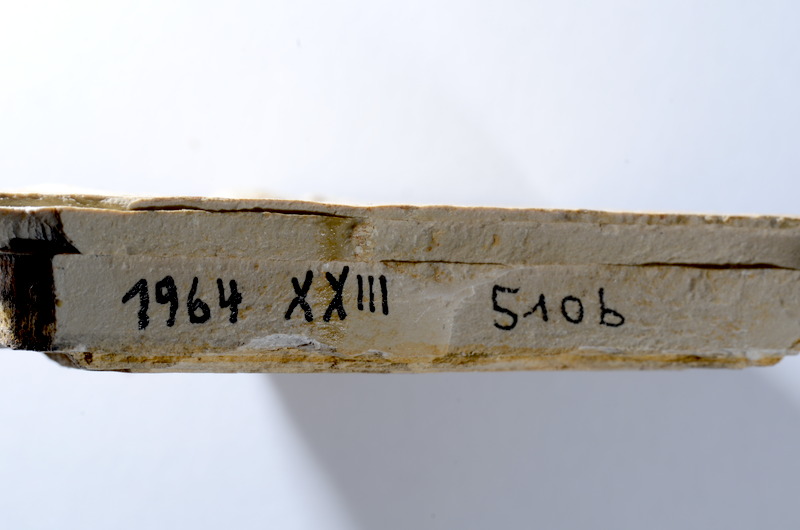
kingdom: Animalia
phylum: Chordata
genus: Thrissops
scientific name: Thrissops
